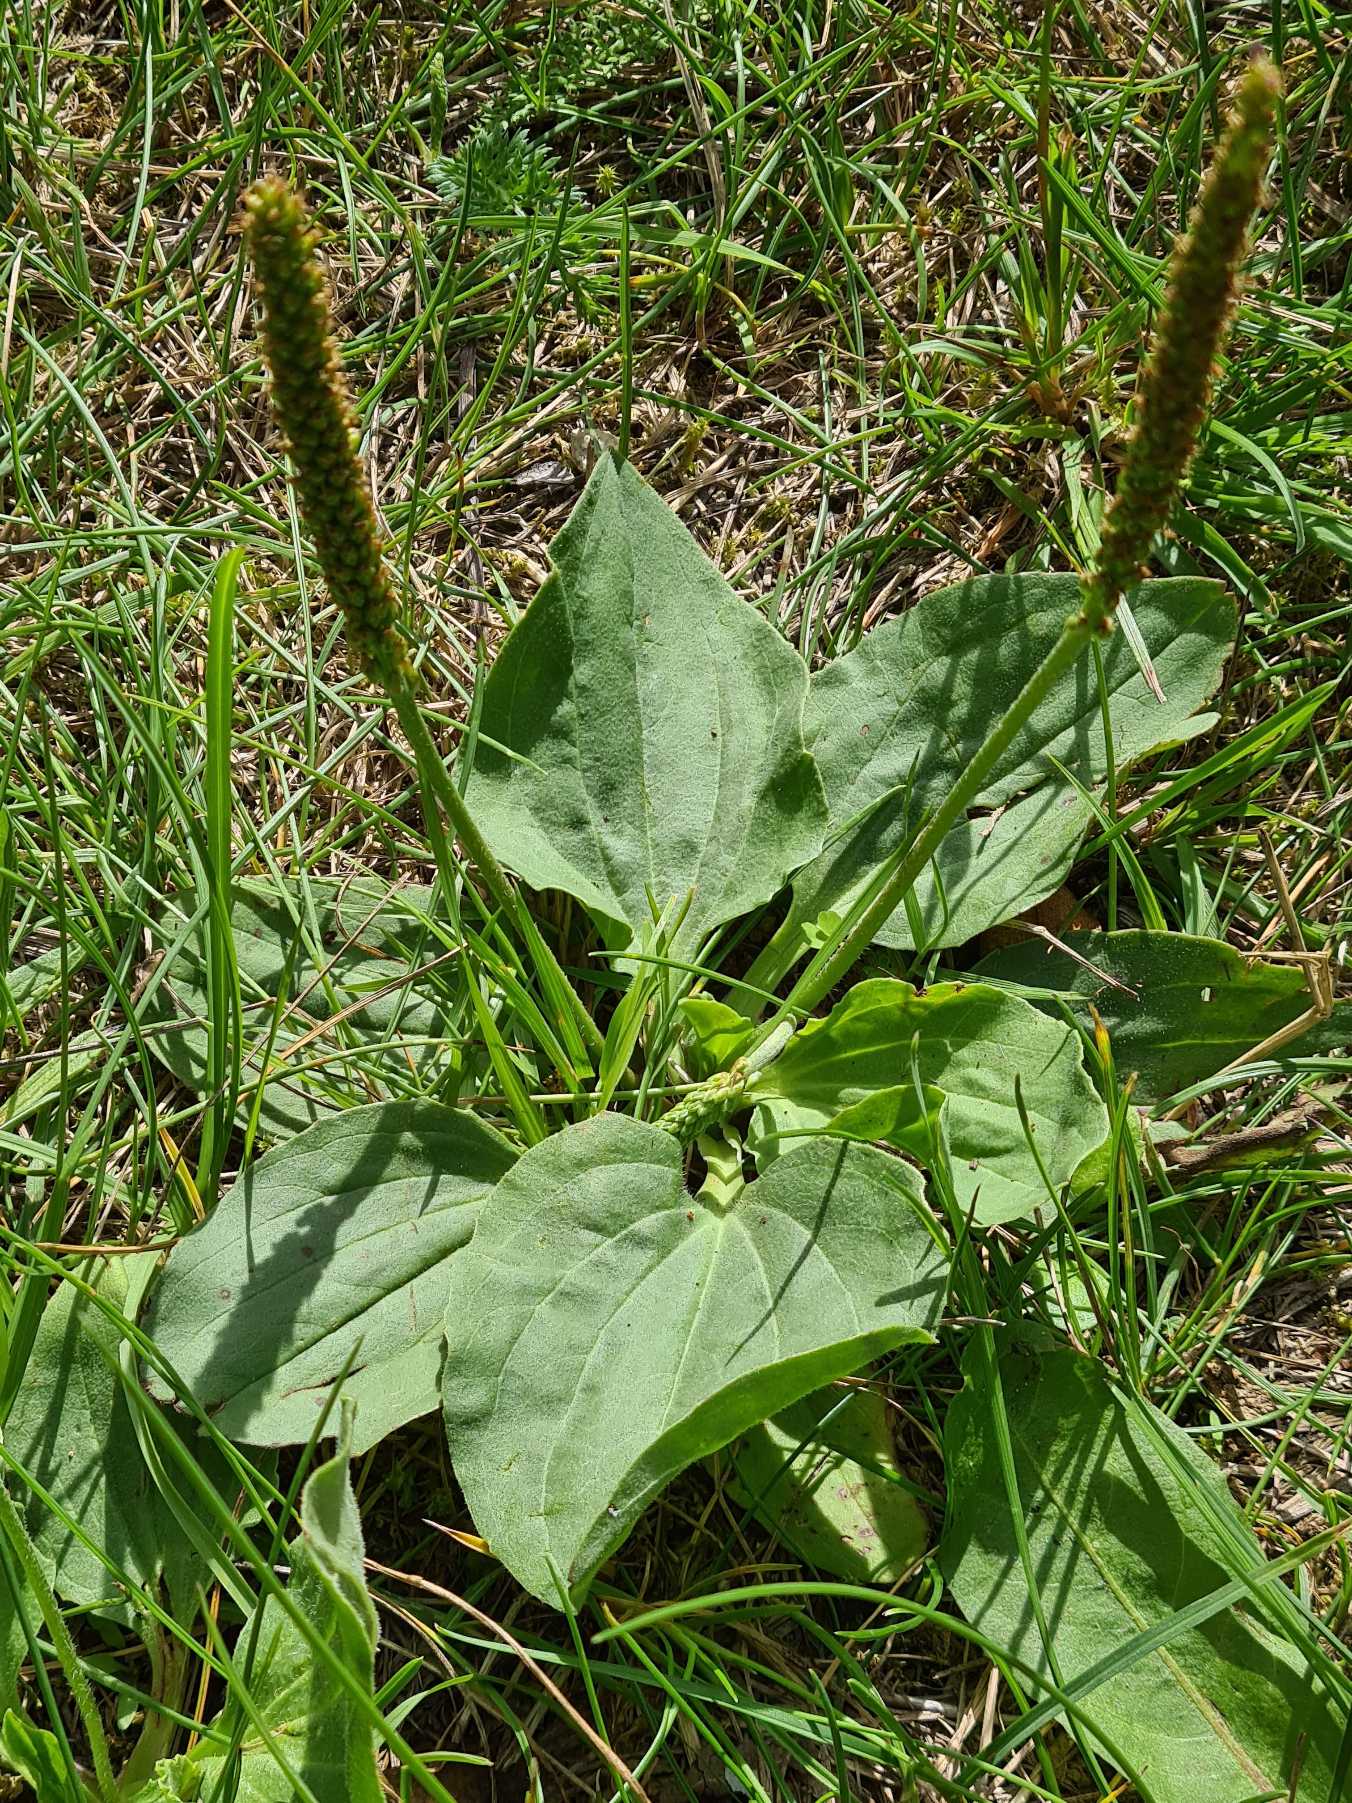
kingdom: Plantae
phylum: Tracheophyta
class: Magnoliopsida
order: Lamiales
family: Plantaginaceae
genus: Plantago
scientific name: Plantago major
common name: Glat vejbred
